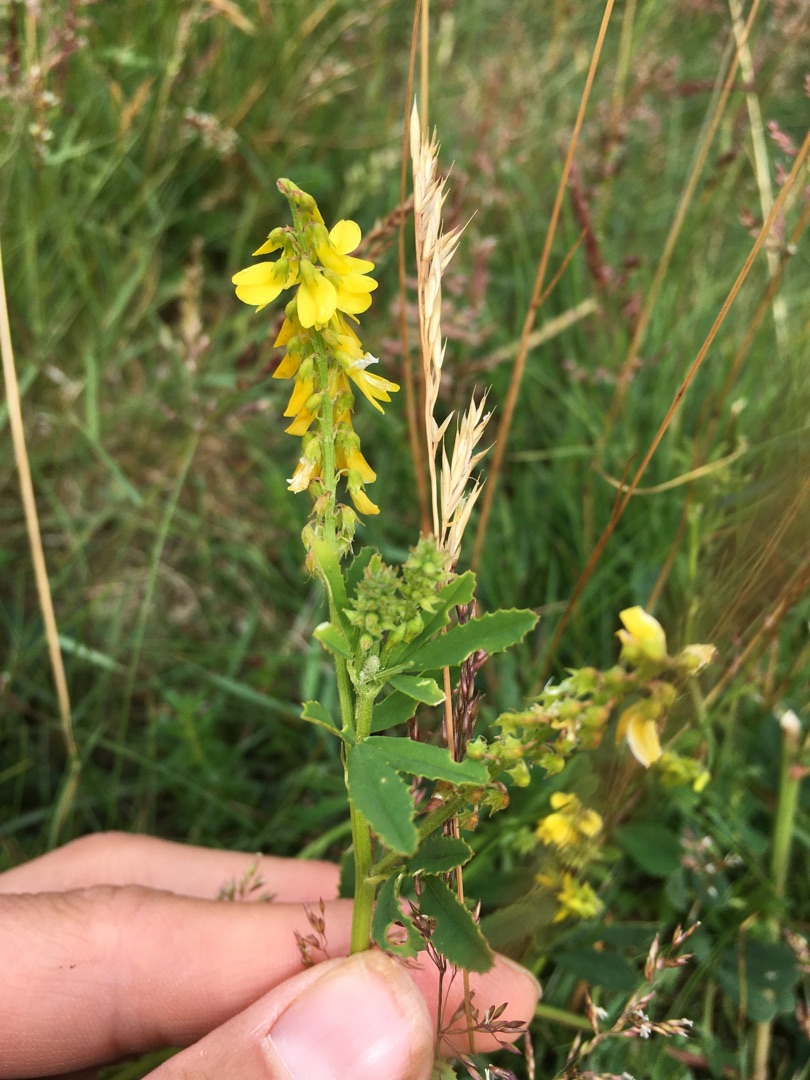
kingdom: Plantae
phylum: Tracheophyta
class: Magnoliopsida
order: Fabales
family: Fabaceae
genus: Melilotus
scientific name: Melilotus altissimus
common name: Høj stenkløver
